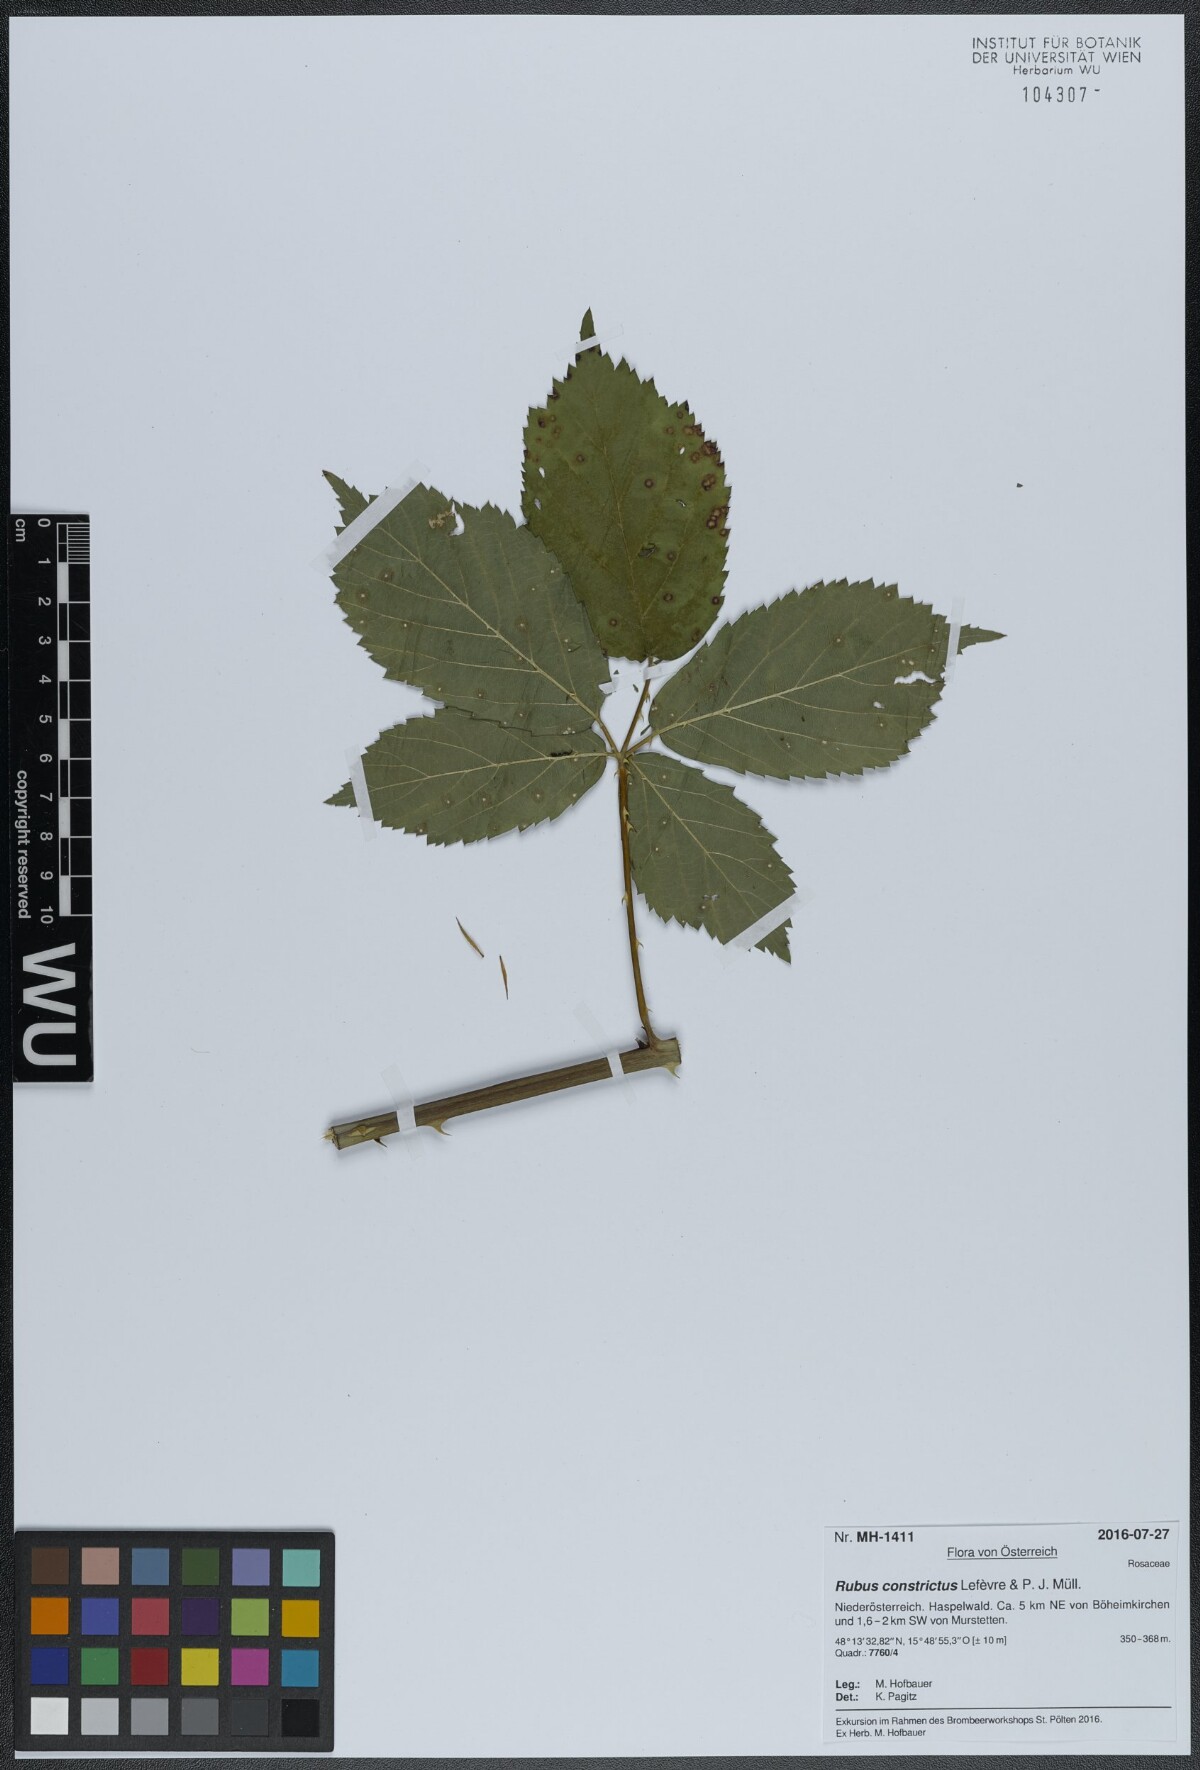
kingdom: Plantae
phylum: Tracheophyta
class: Magnoliopsida
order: Rosales
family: Rosaceae
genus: Rubus
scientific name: Rubus constrictus
